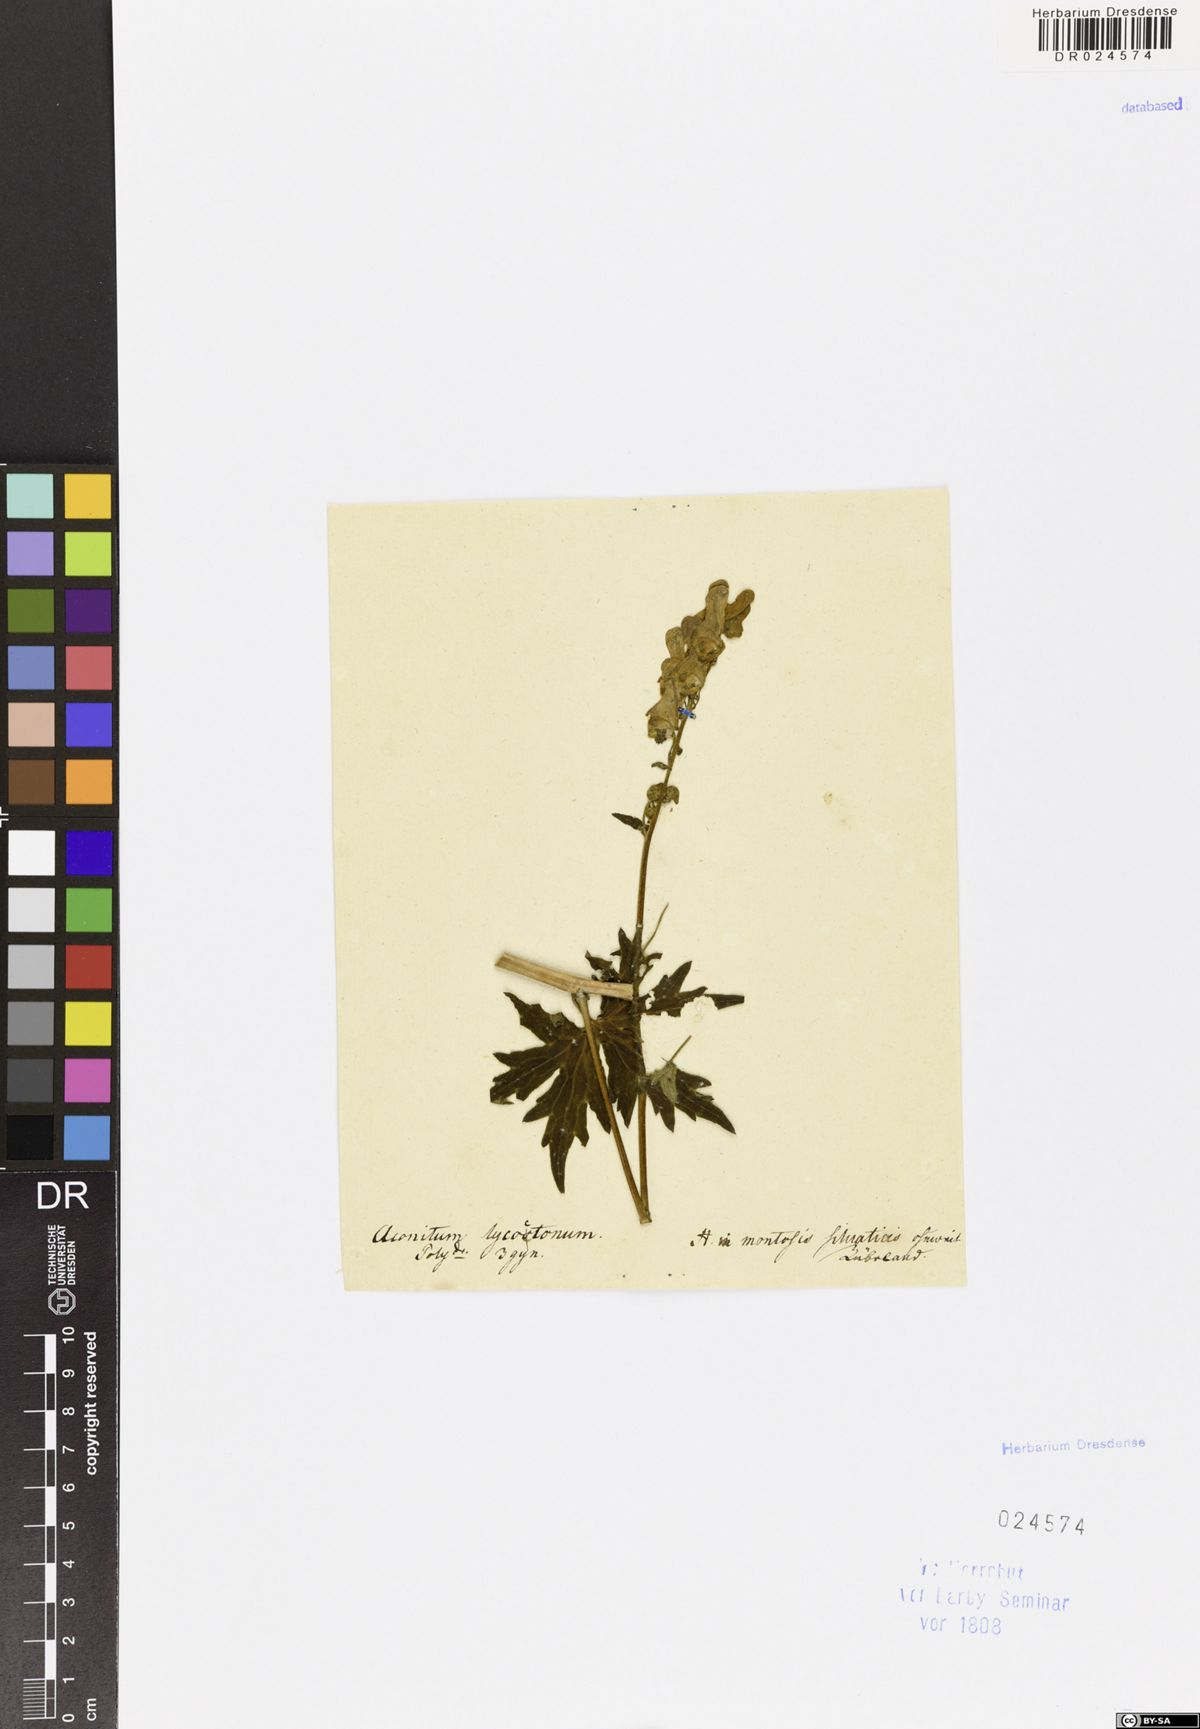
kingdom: Plantae
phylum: Tracheophyta
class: Magnoliopsida
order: Ranunculales
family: Ranunculaceae
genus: Aconitum
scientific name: Aconitum lycoctonum
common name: Wolf's-bane
